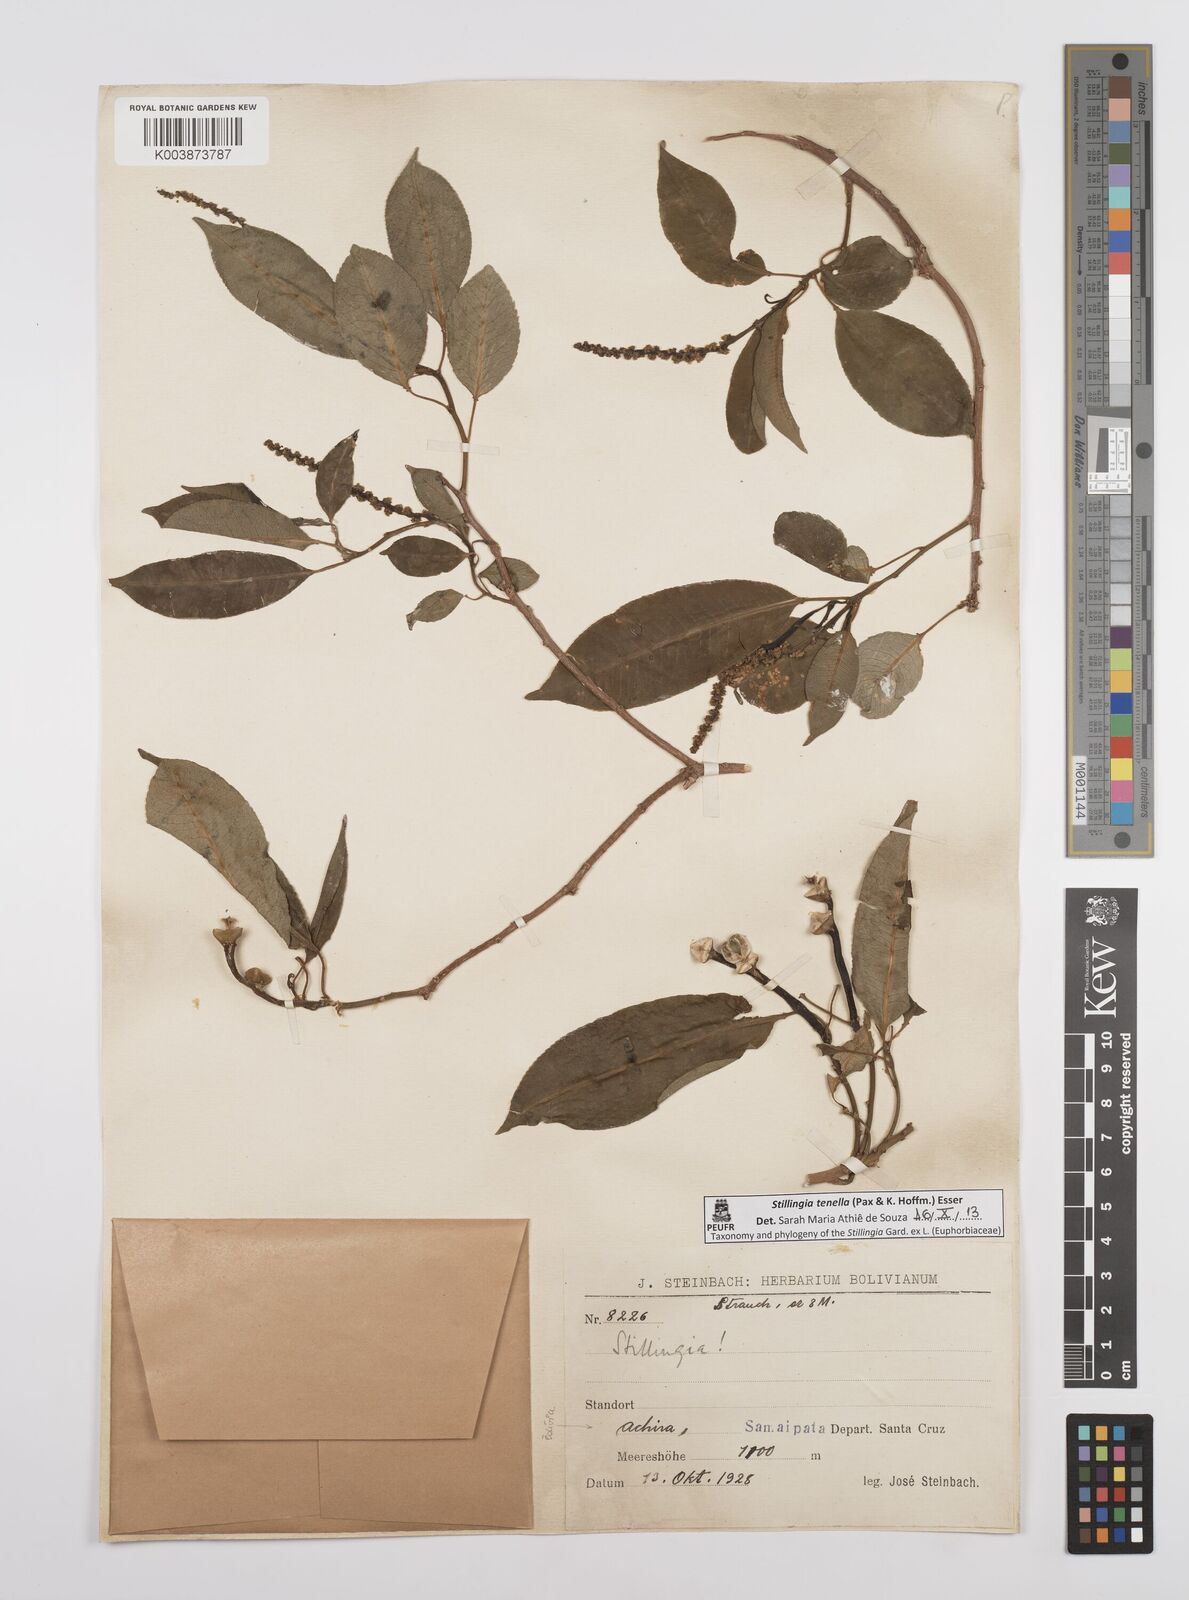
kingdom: Plantae
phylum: Tracheophyta
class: Magnoliopsida
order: Malpighiales
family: Euphorbiaceae
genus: Stillingia
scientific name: Stillingia tenella
